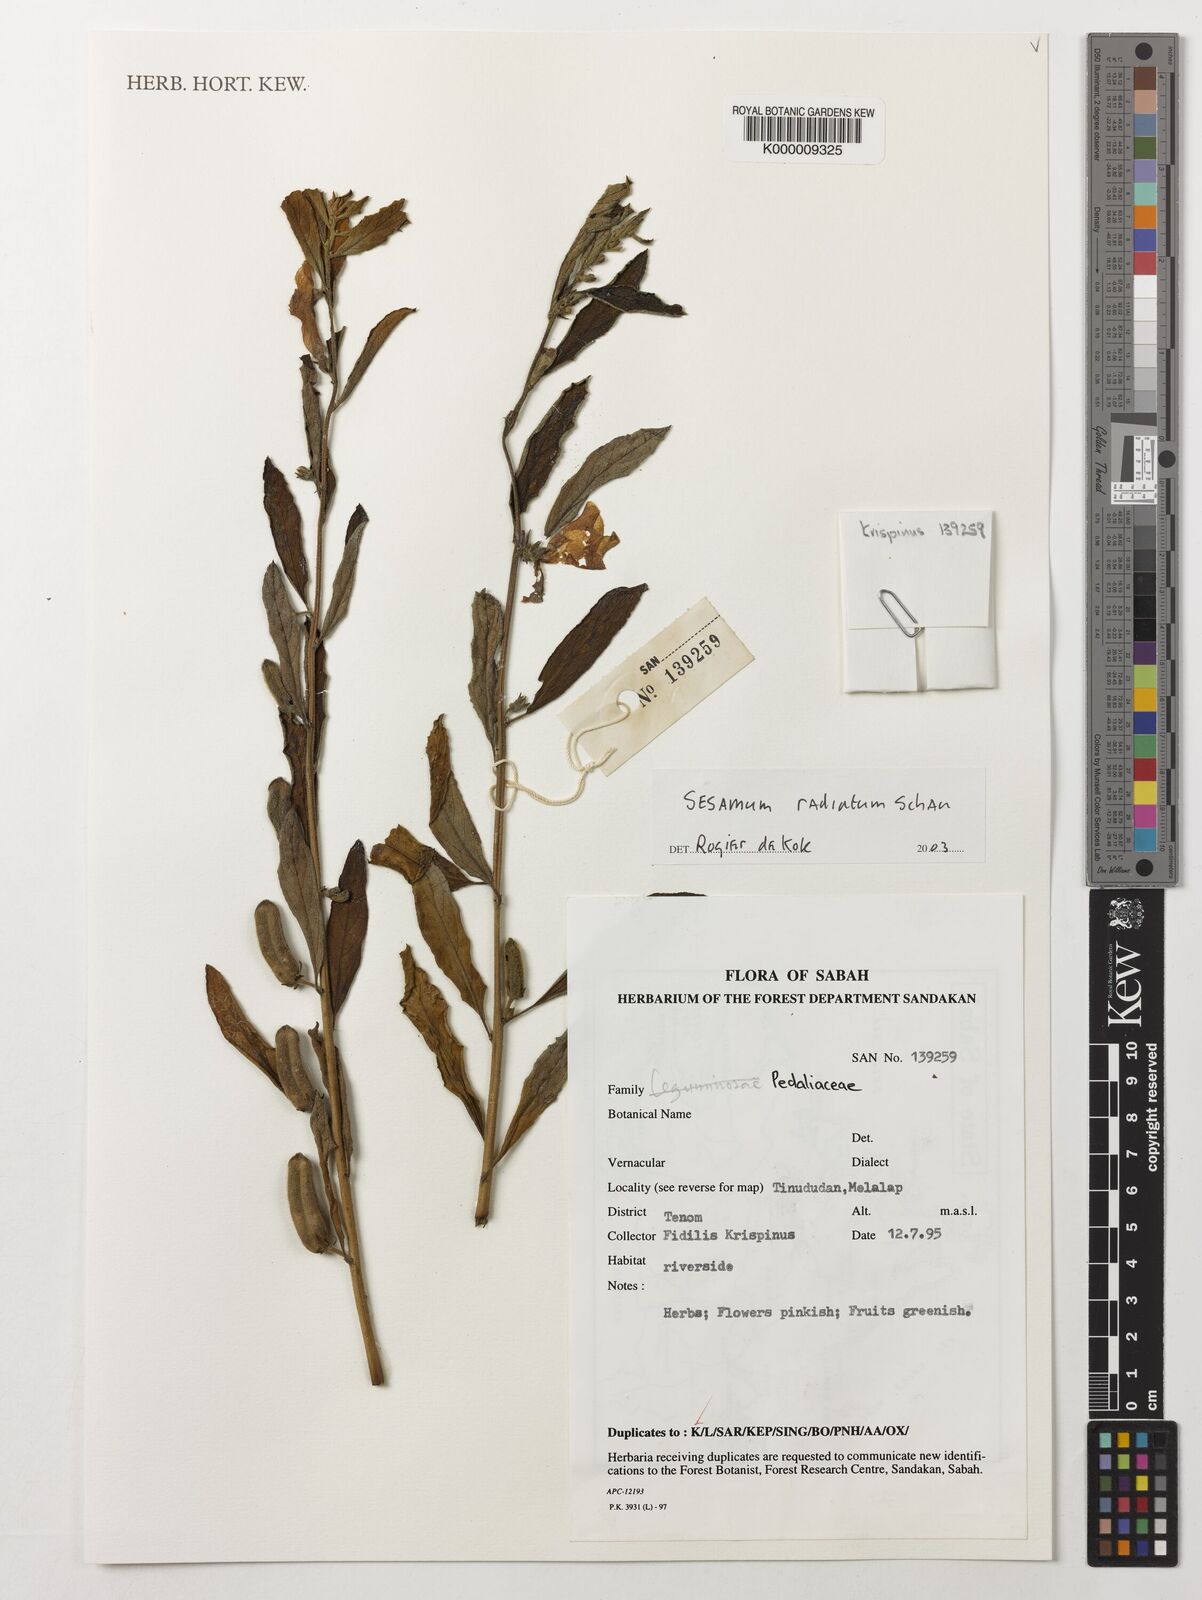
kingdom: Plantae
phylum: Tracheophyta
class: Magnoliopsida
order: Lamiales
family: Pedaliaceae
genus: Sesamum
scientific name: Sesamum
